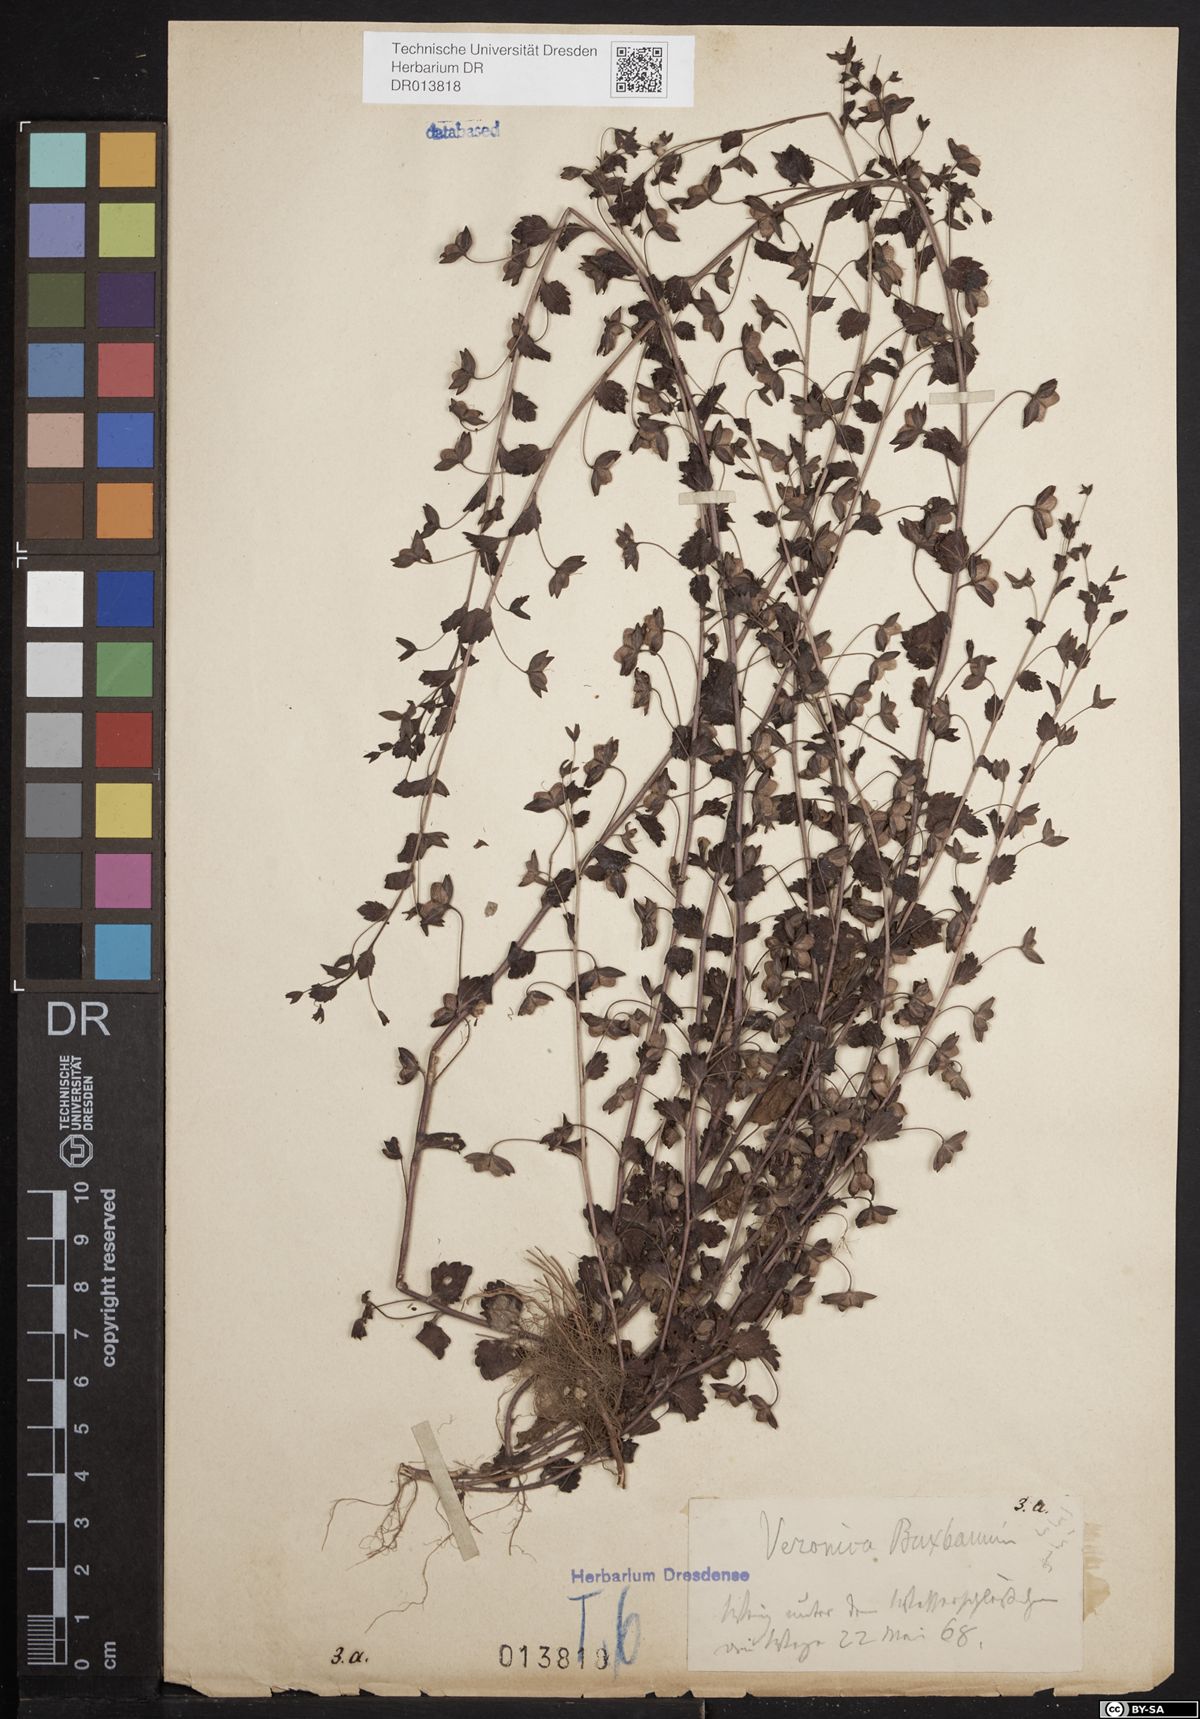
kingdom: Plantae
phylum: Tracheophyta
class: Magnoliopsida
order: Lamiales
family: Plantaginaceae
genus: Veronica
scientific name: Veronica persica
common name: Common field-speedwell
